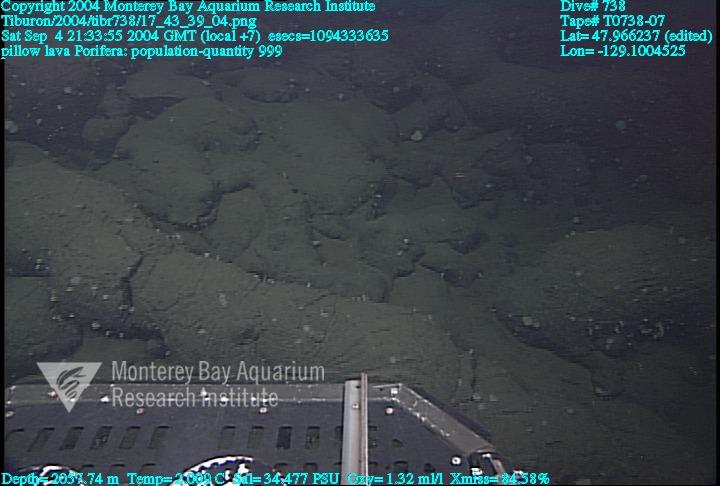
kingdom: Animalia
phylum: Porifera
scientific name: Porifera
